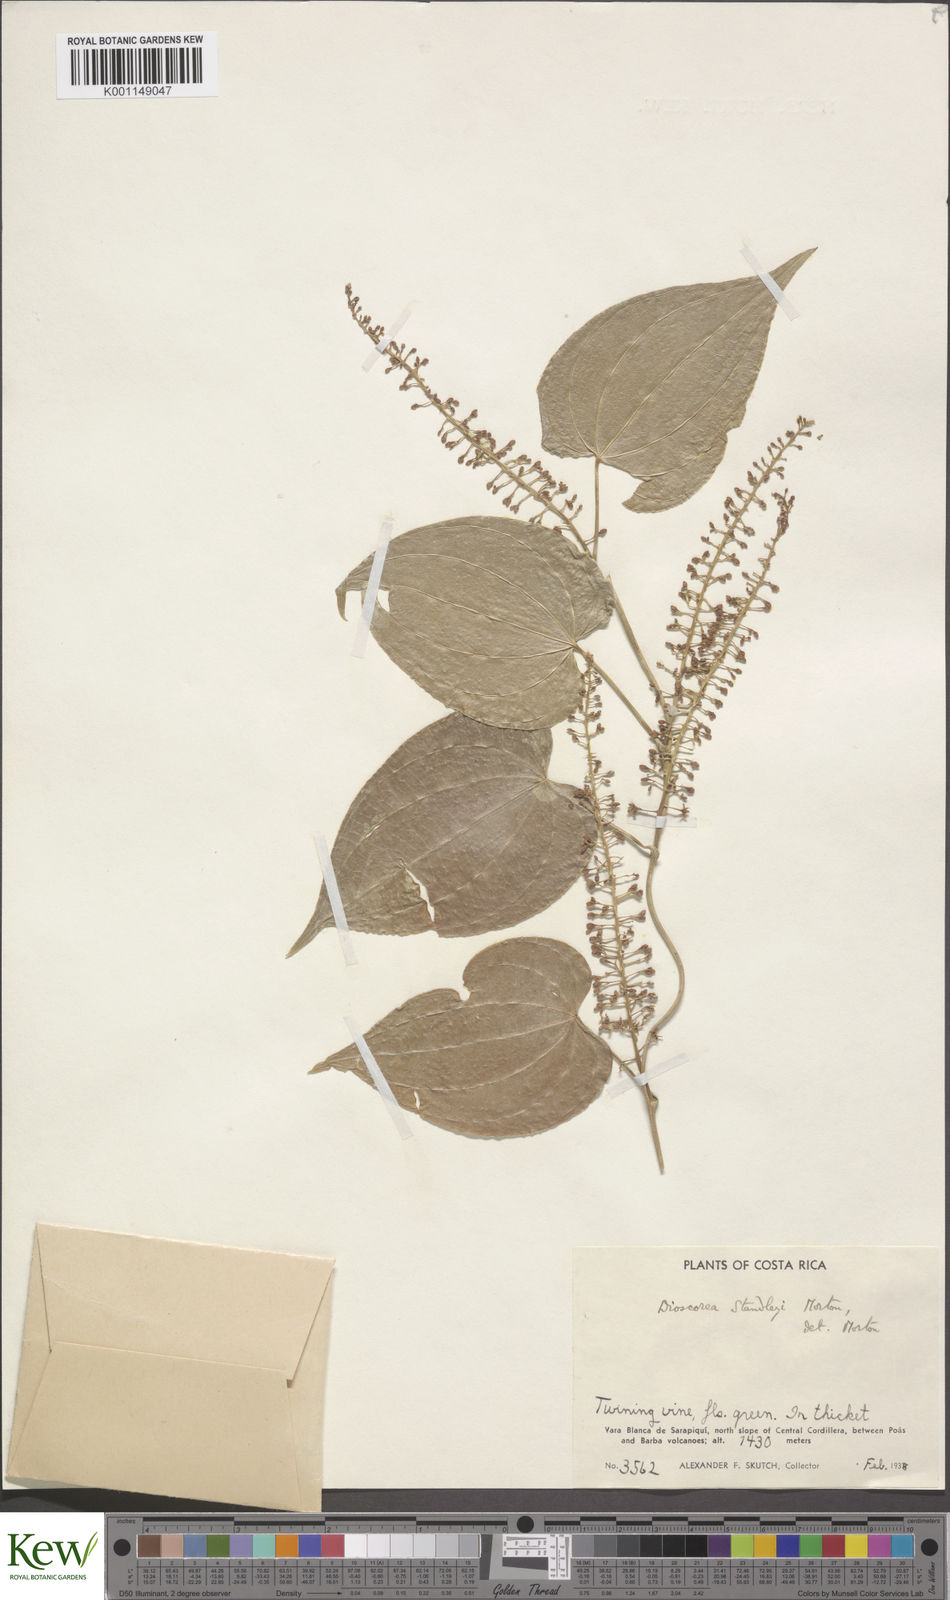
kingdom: Plantae
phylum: Tracheophyta
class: Liliopsida
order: Dioscoreales
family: Dioscoreaceae
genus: Dioscorea
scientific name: Dioscorea standleyi
